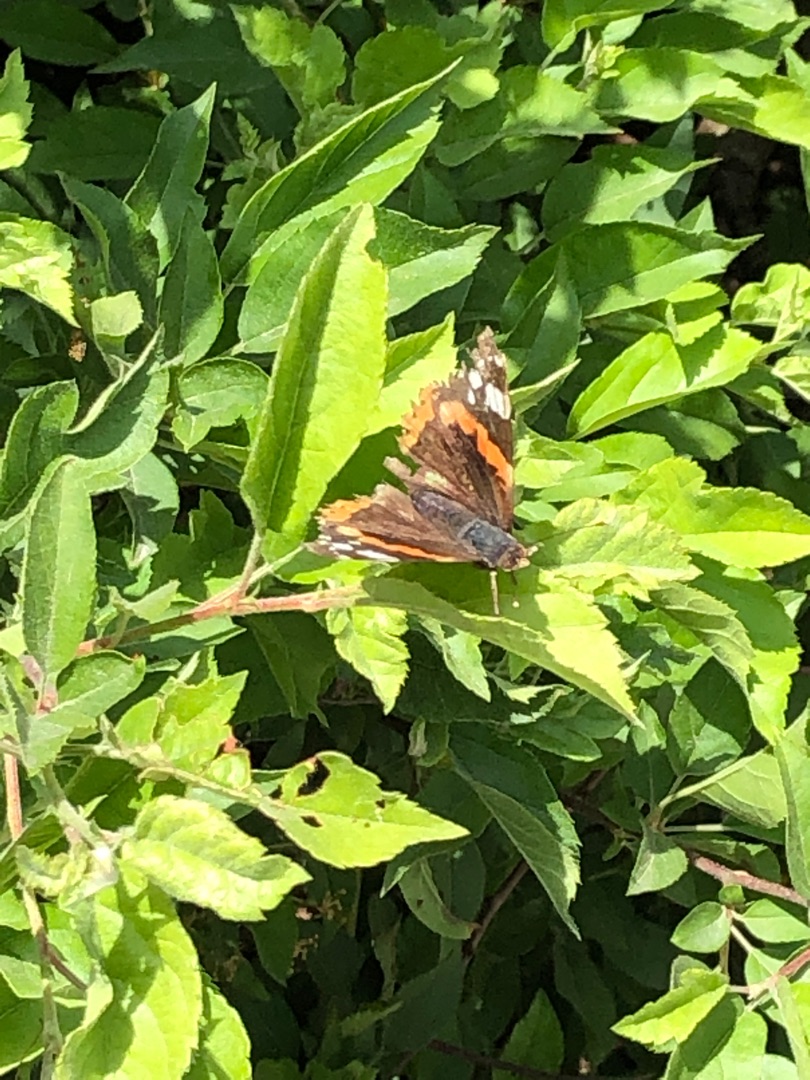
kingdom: Animalia
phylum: Arthropoda
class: Insecta
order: Lepidoptera
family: Nymphalidae
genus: Vanessa
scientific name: Vanessa atalanta
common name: Admiral
